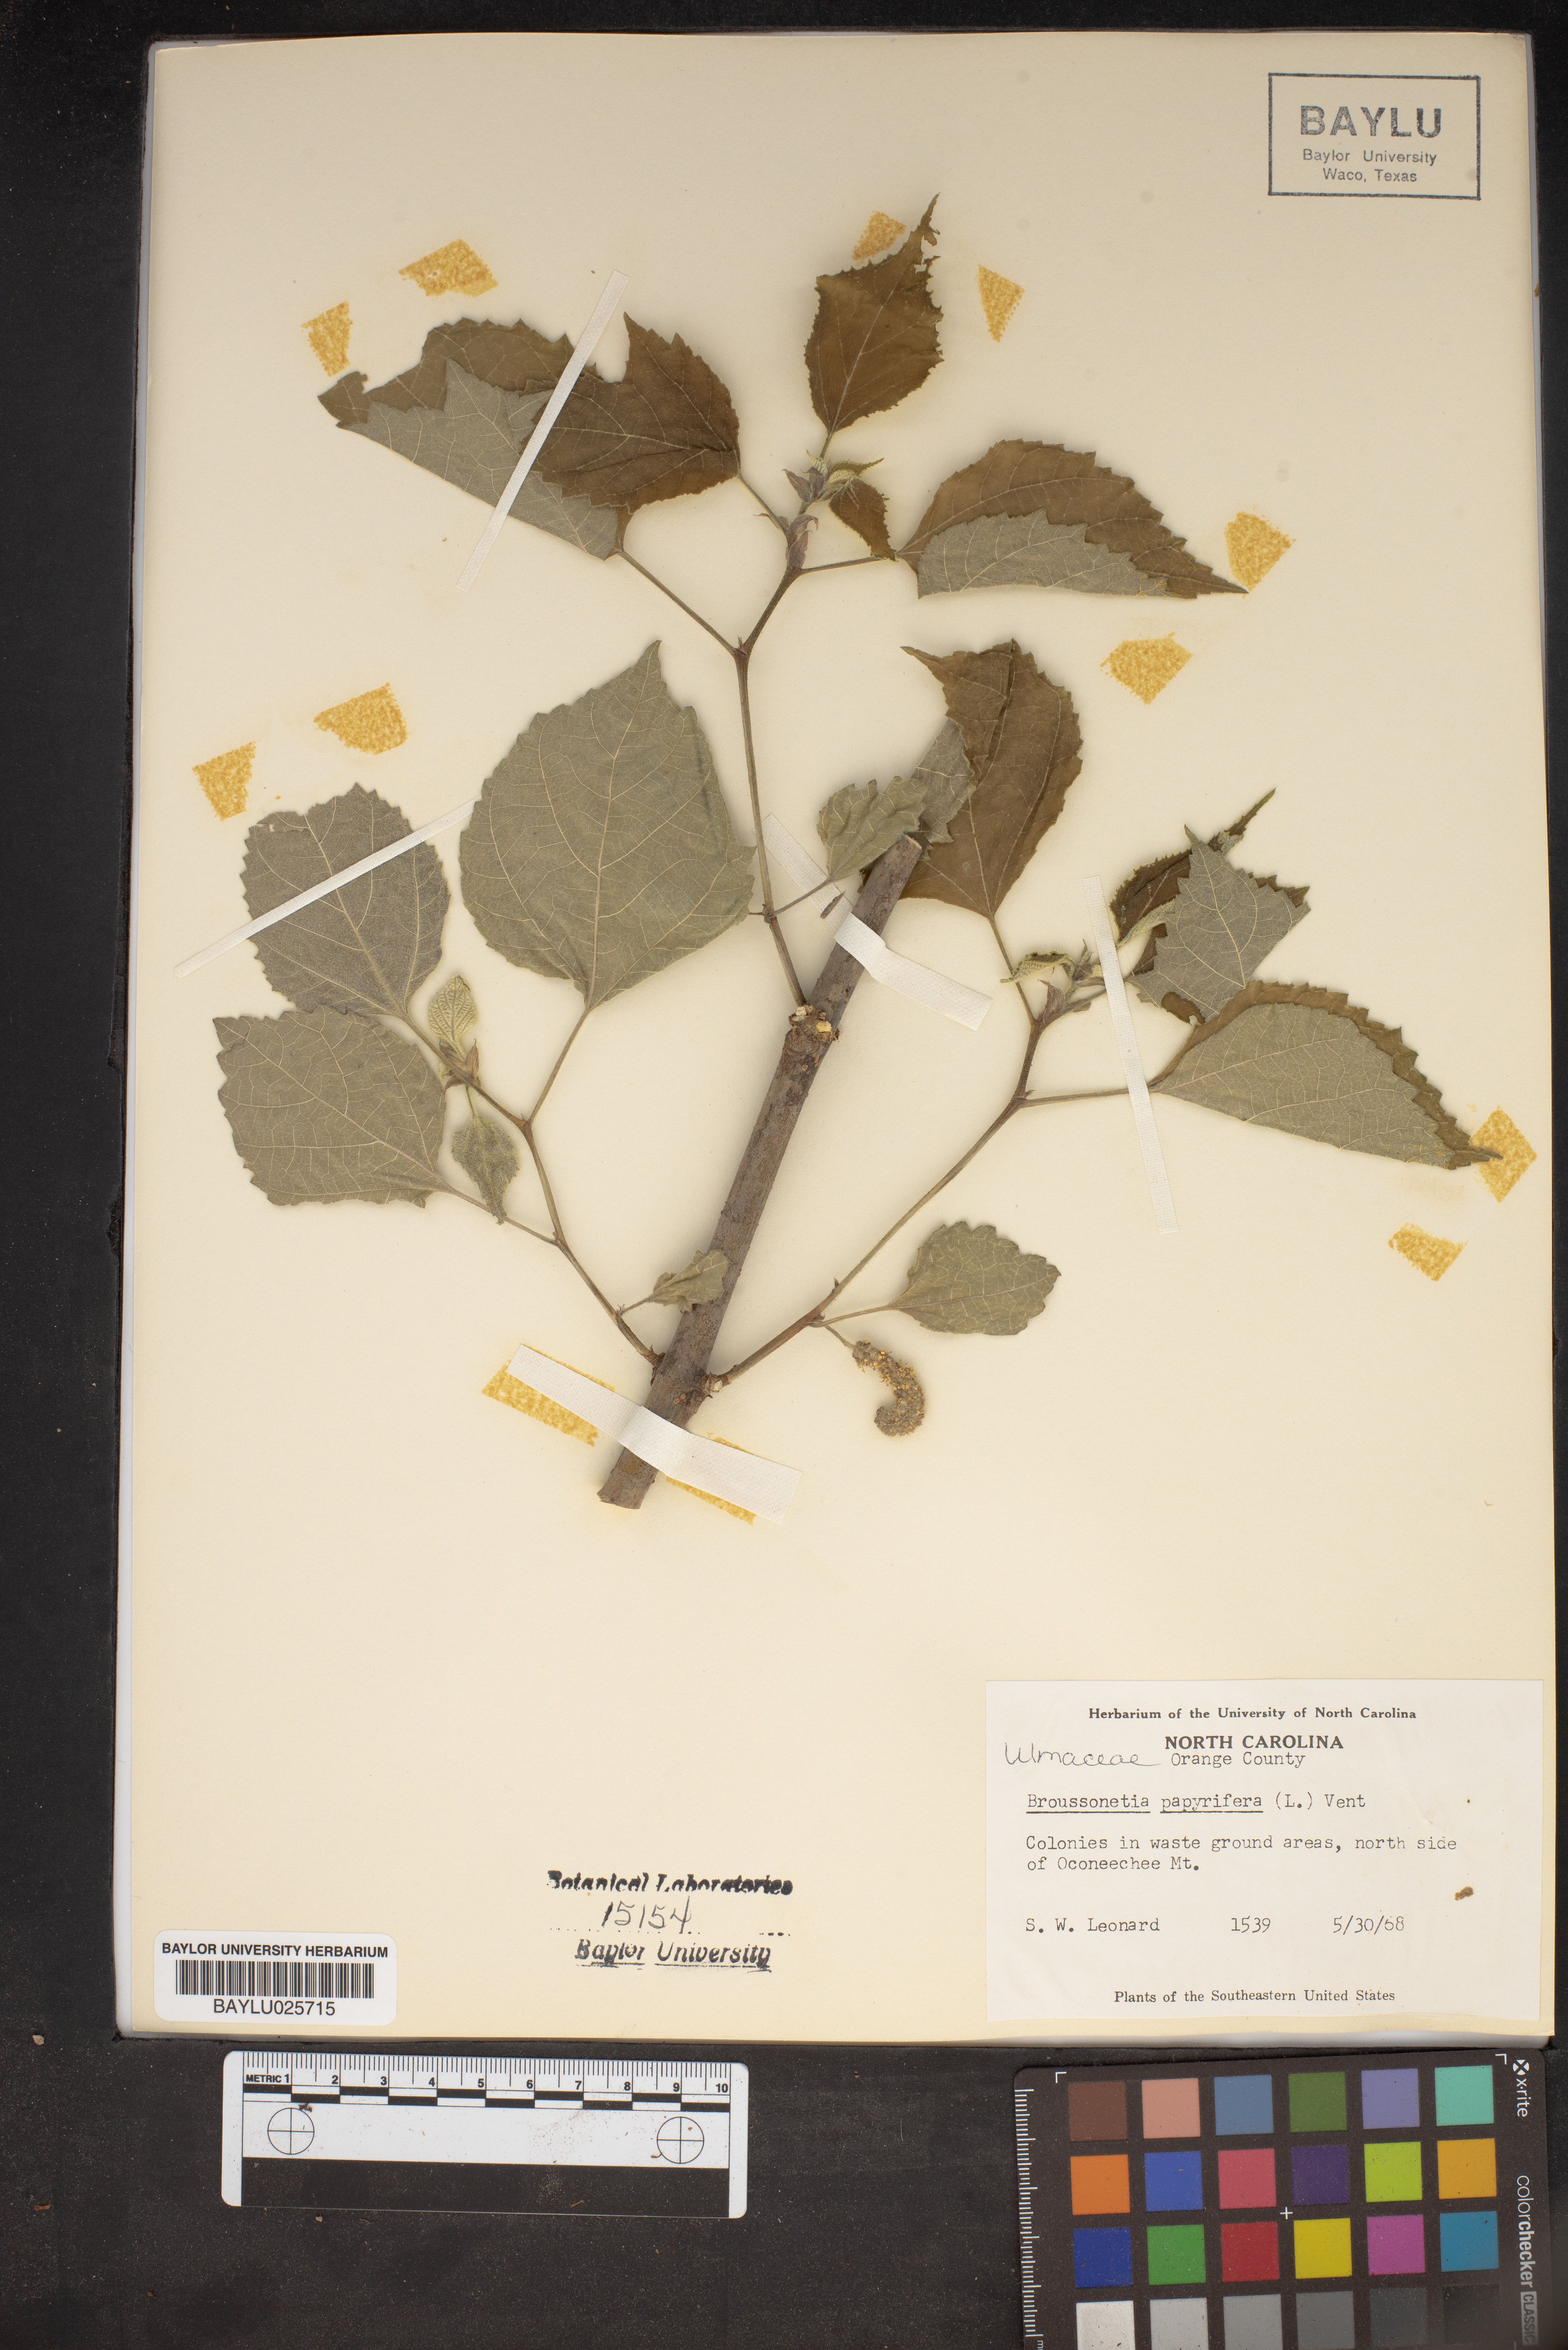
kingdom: Plantae
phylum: Tracheophyta
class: Magnoliopsida
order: Rosales
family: Moraceae
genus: Broussonetia
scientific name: Broussonetia papyrifera
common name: Paper mulberry
